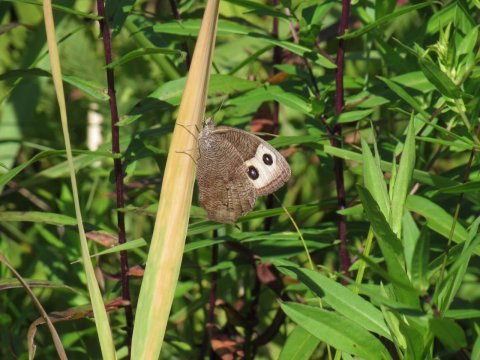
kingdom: Animalia
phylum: Arthropoda
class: Insecta
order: Lepidoptera
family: Nymphalidae
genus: Cercyonis
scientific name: Cercyonis pegala
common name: Common Wood-Nymph
